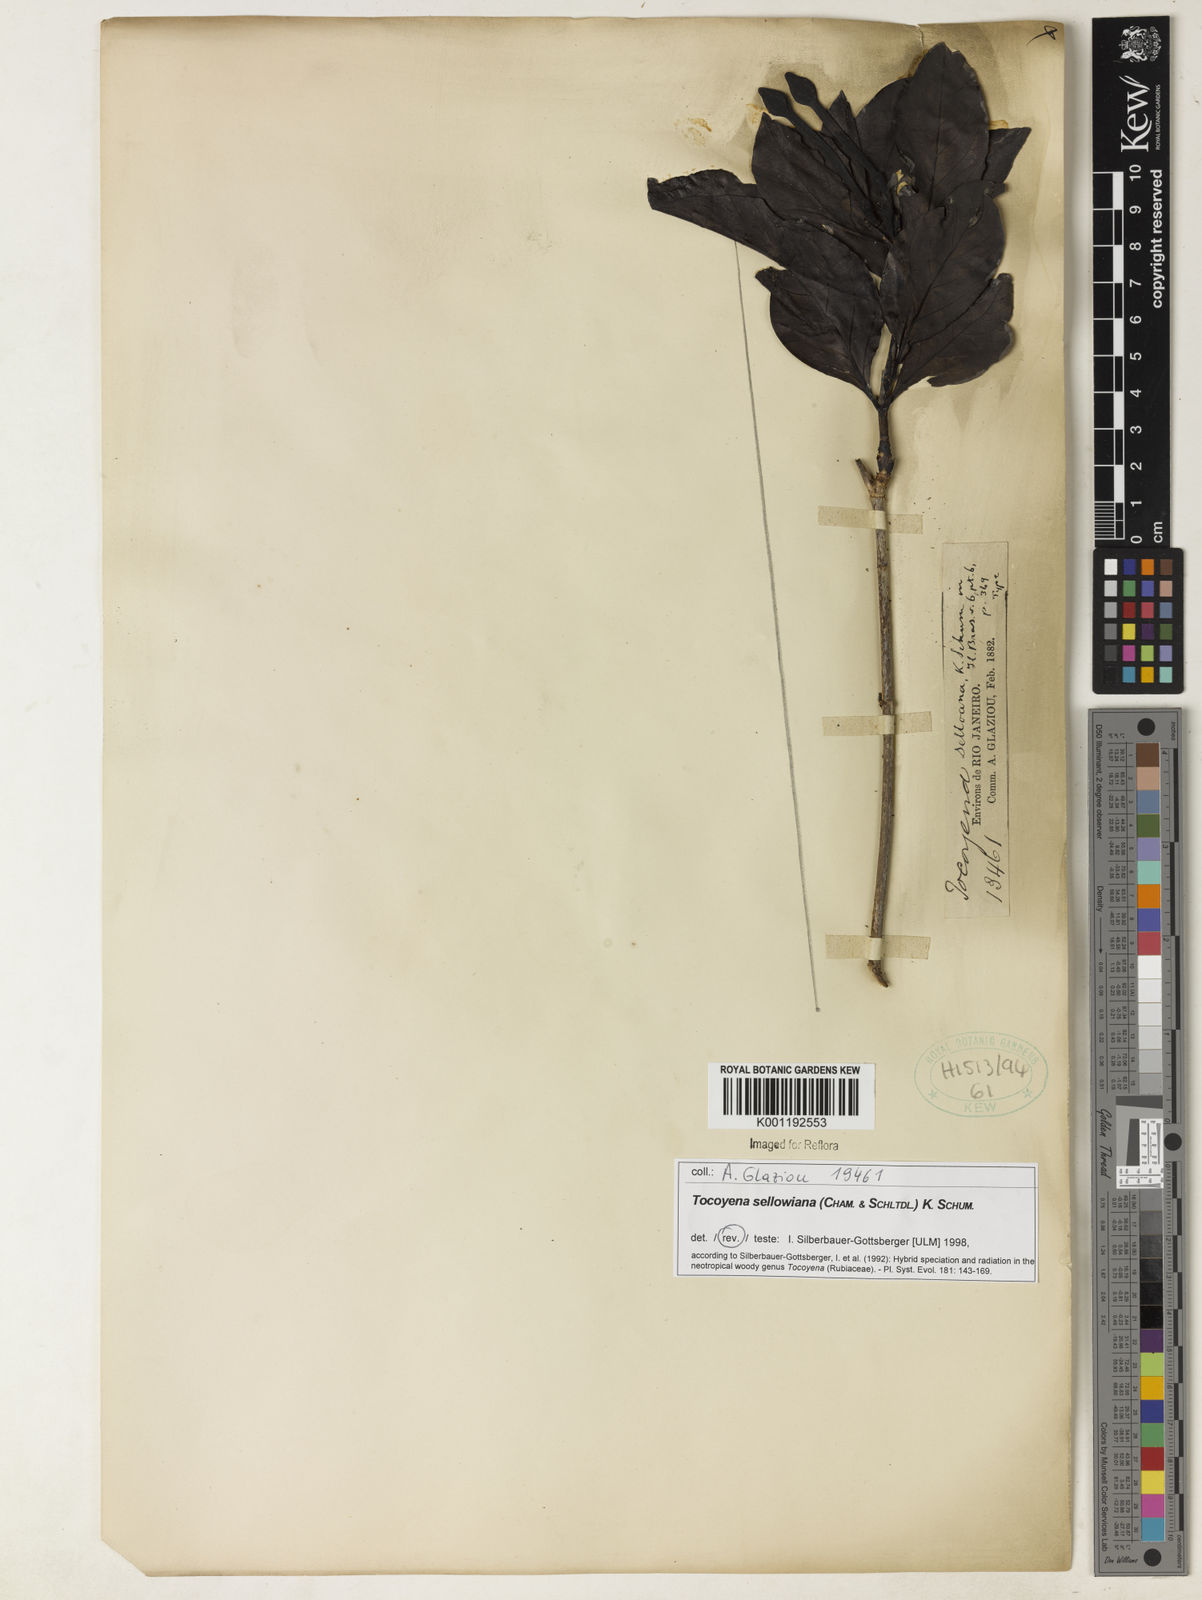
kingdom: Plantae
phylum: Tracheophyta
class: Magnoliopsida
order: Gentianales
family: Rubiaceae
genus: Tocoyena
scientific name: Tocoyena sellowiana
